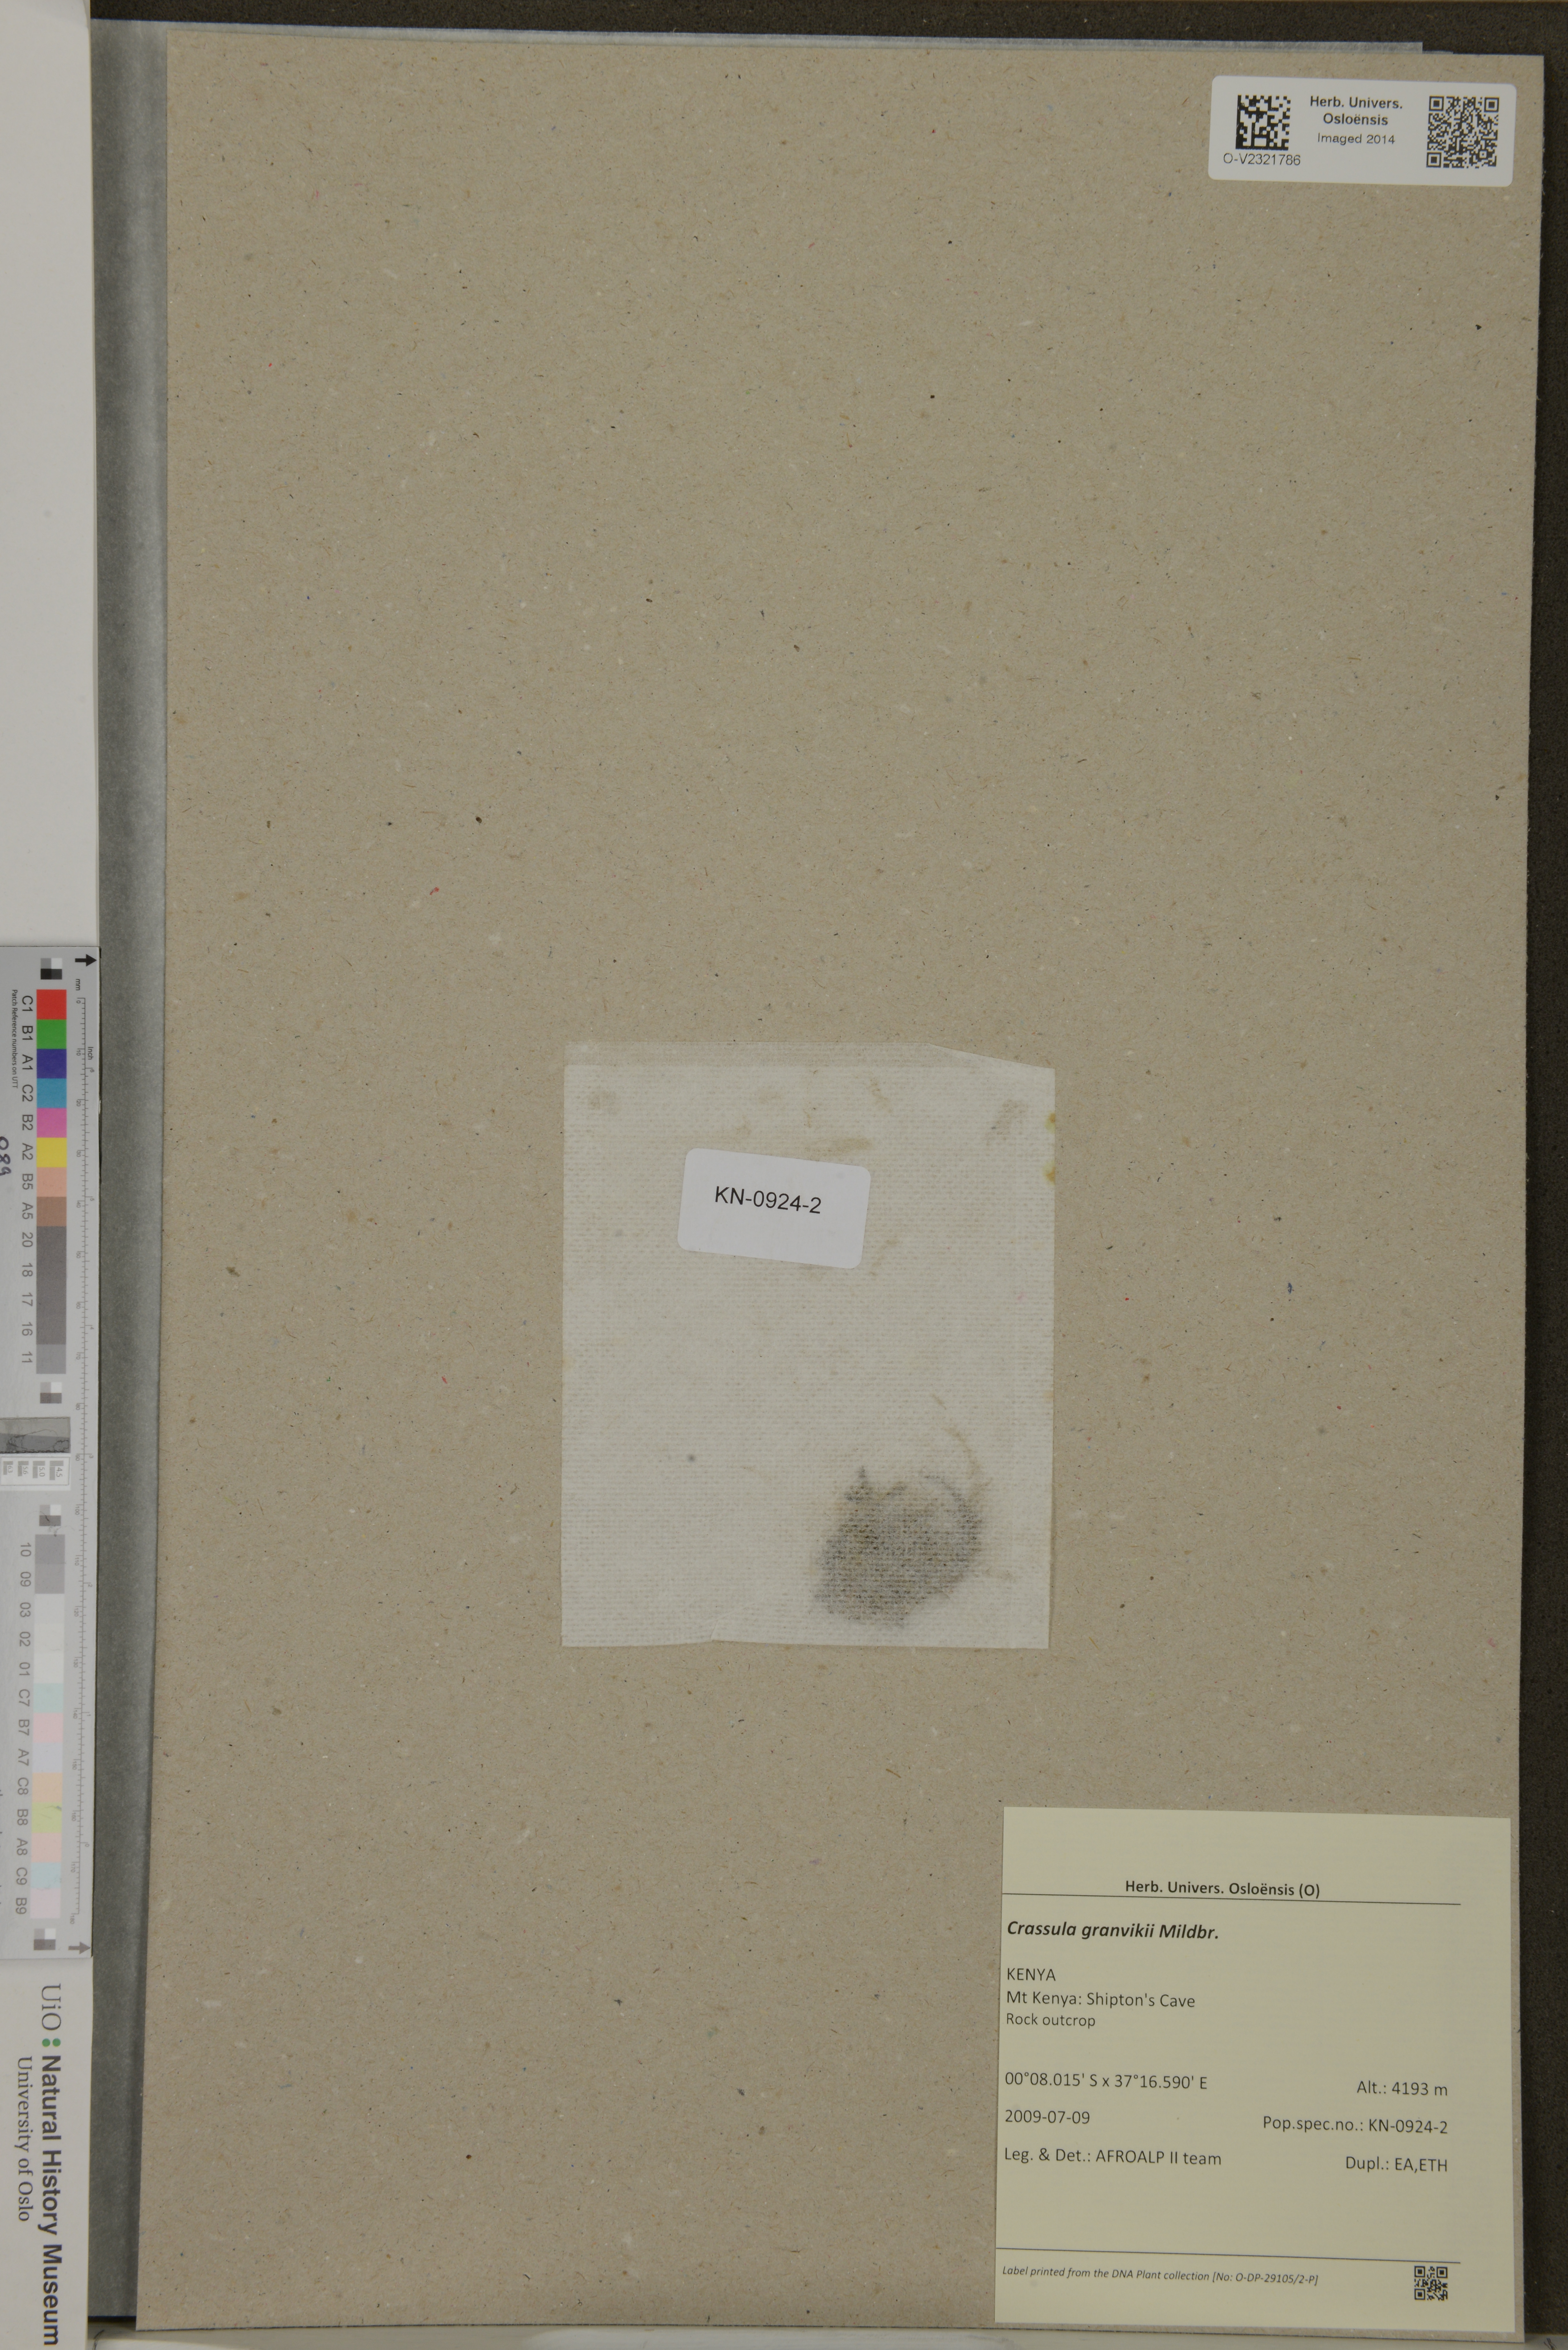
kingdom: Plantae
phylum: Tracheophyta
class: Magnoliopsida
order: Saxifragales
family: Crassulaceae
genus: Crassula
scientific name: Crassula granvikii
